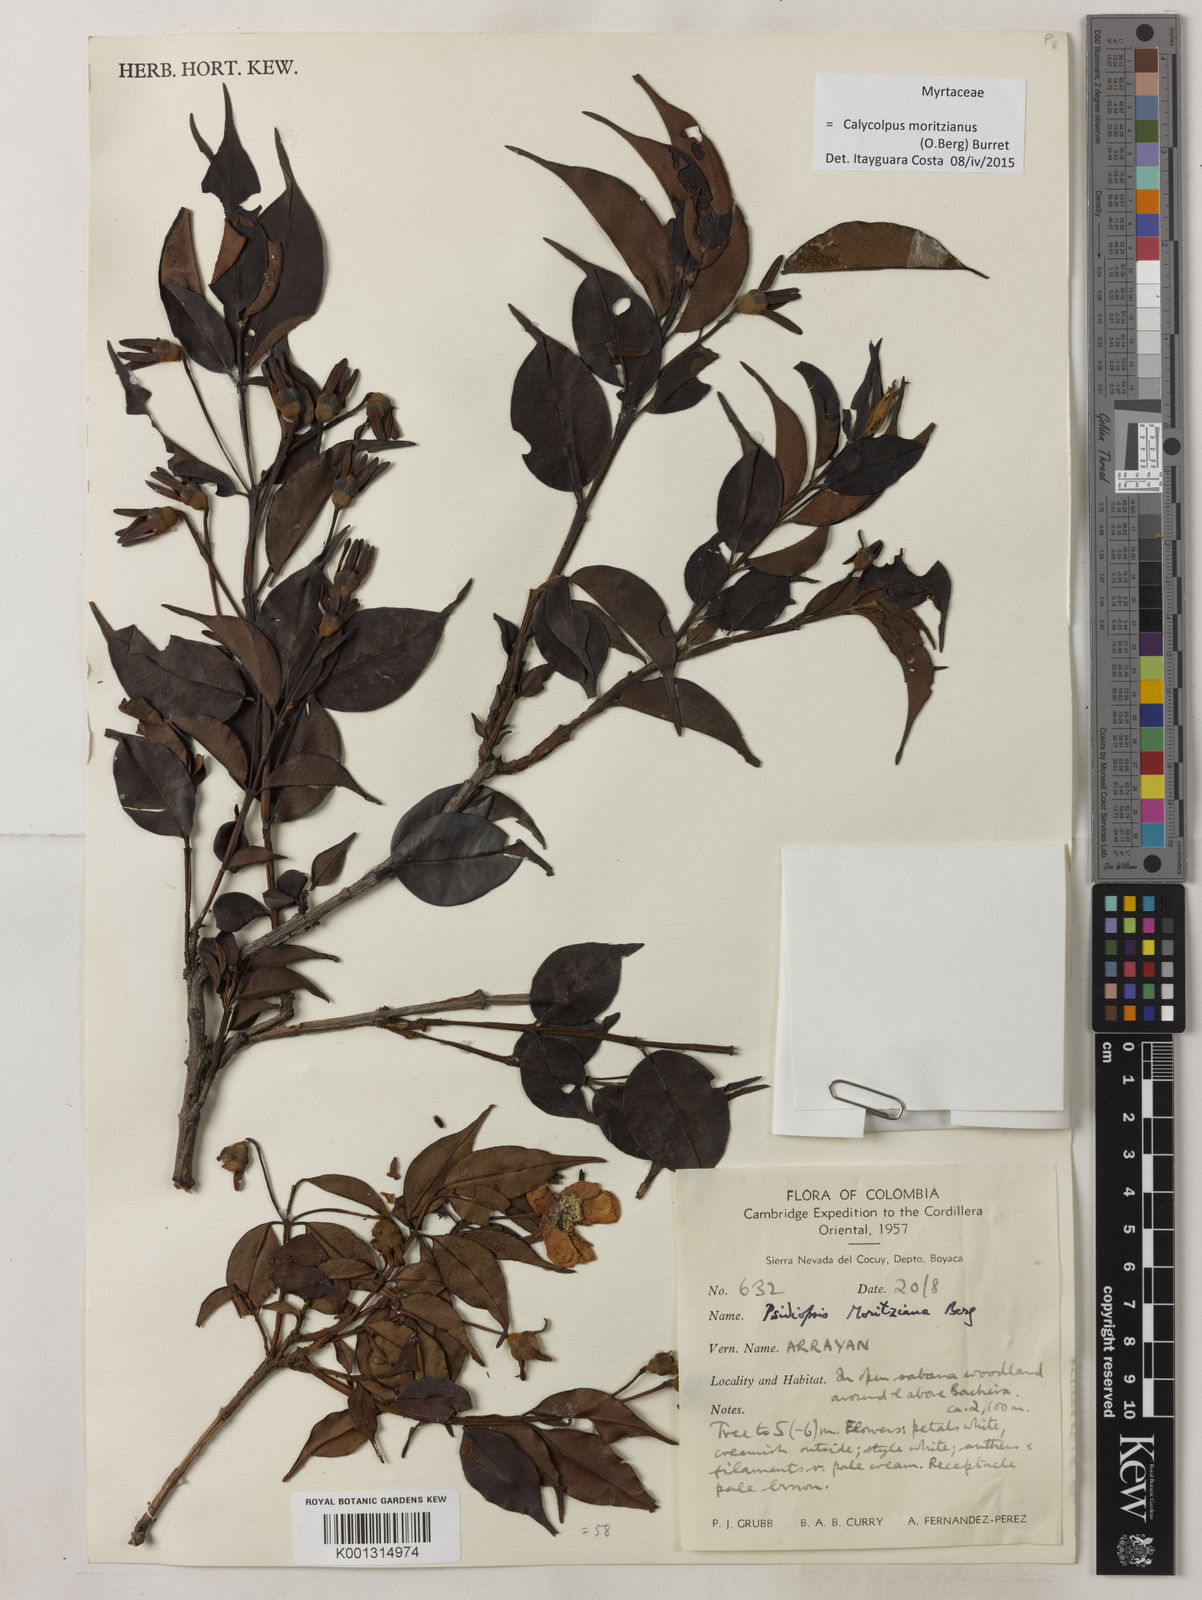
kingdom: Plantae
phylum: Tracheophyta
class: Magnoliopsida
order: Myrtales
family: Myrtaceae
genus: Calycolpus
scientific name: Calycolpus moritzianus
